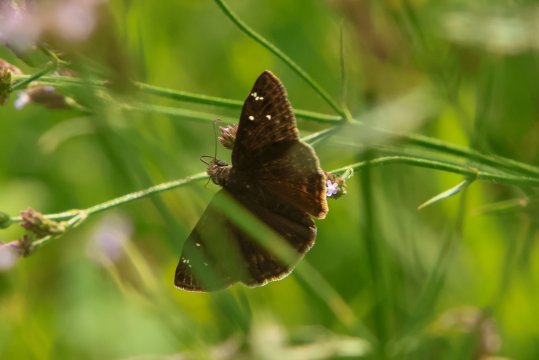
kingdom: Animalia
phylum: Arthropoda
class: Insecta
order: Lepidoptera
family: Hesperiidae
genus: Gesta
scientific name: Gesta
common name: Horace's Duskywing
